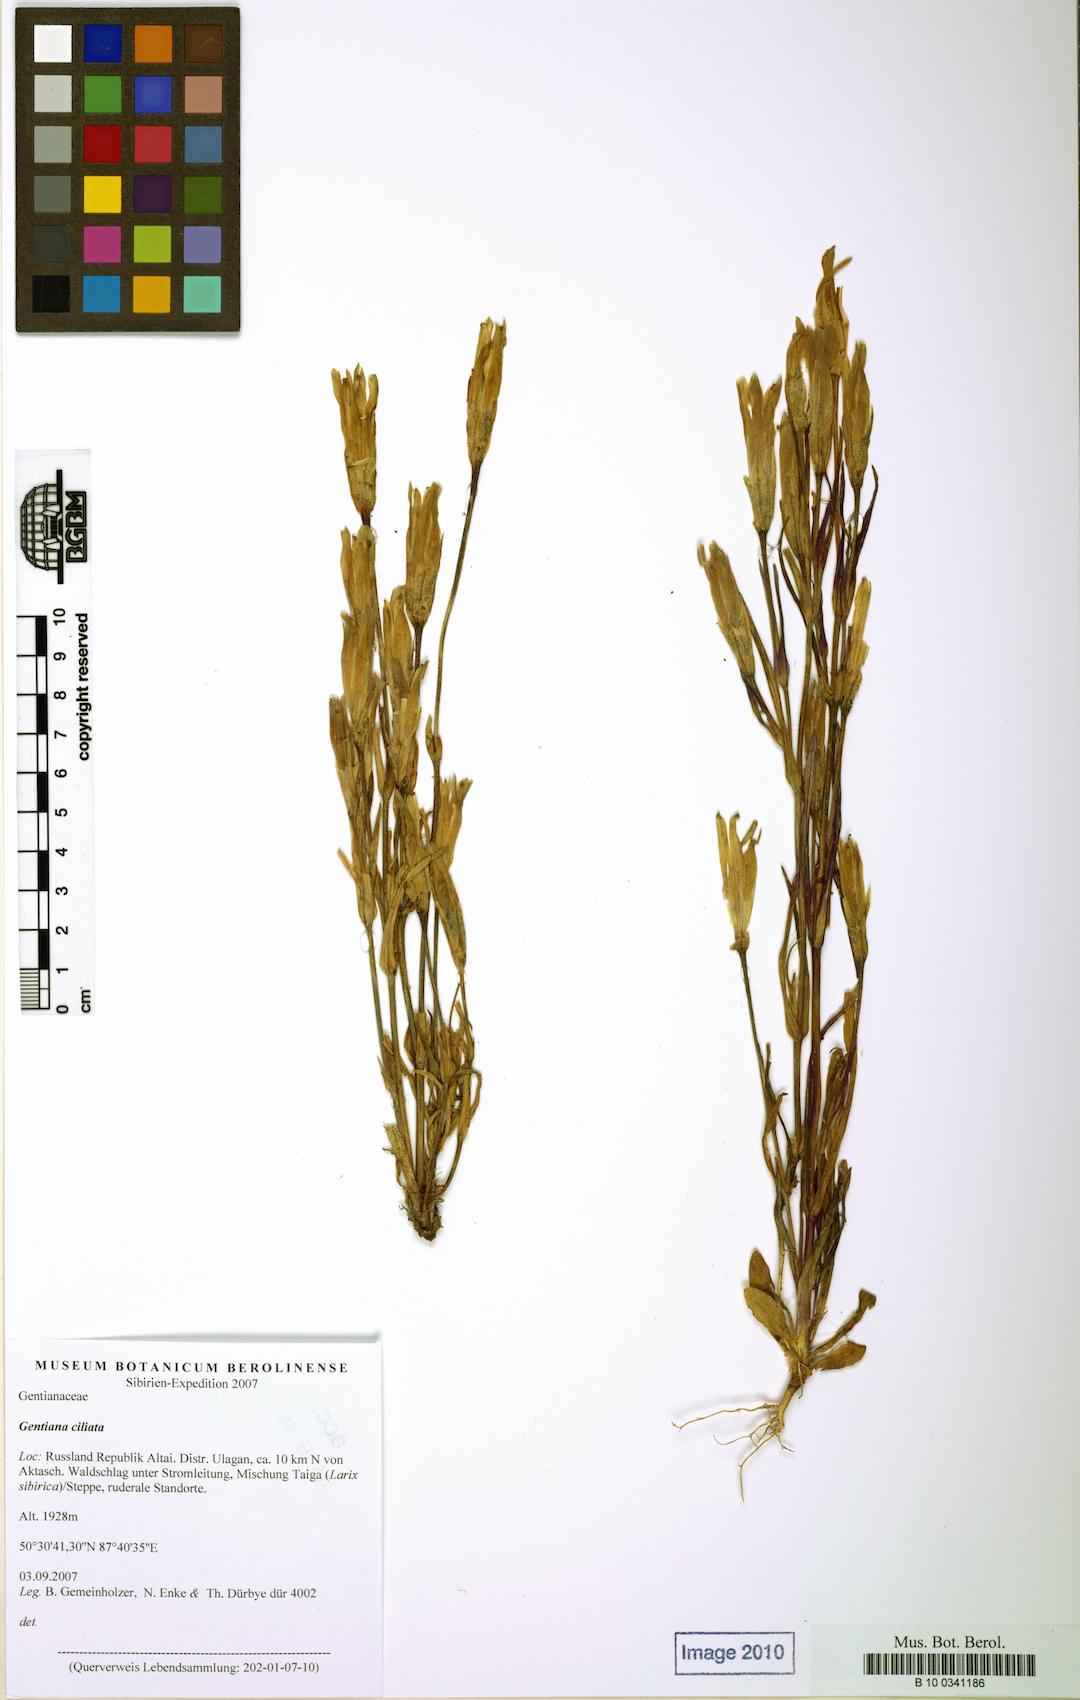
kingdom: Plantae
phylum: Tracheophyta
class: Magnoliopsida
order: Gentianales
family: Gentianaceae
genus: Gentianopsis
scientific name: Gentianopsis ciliata
